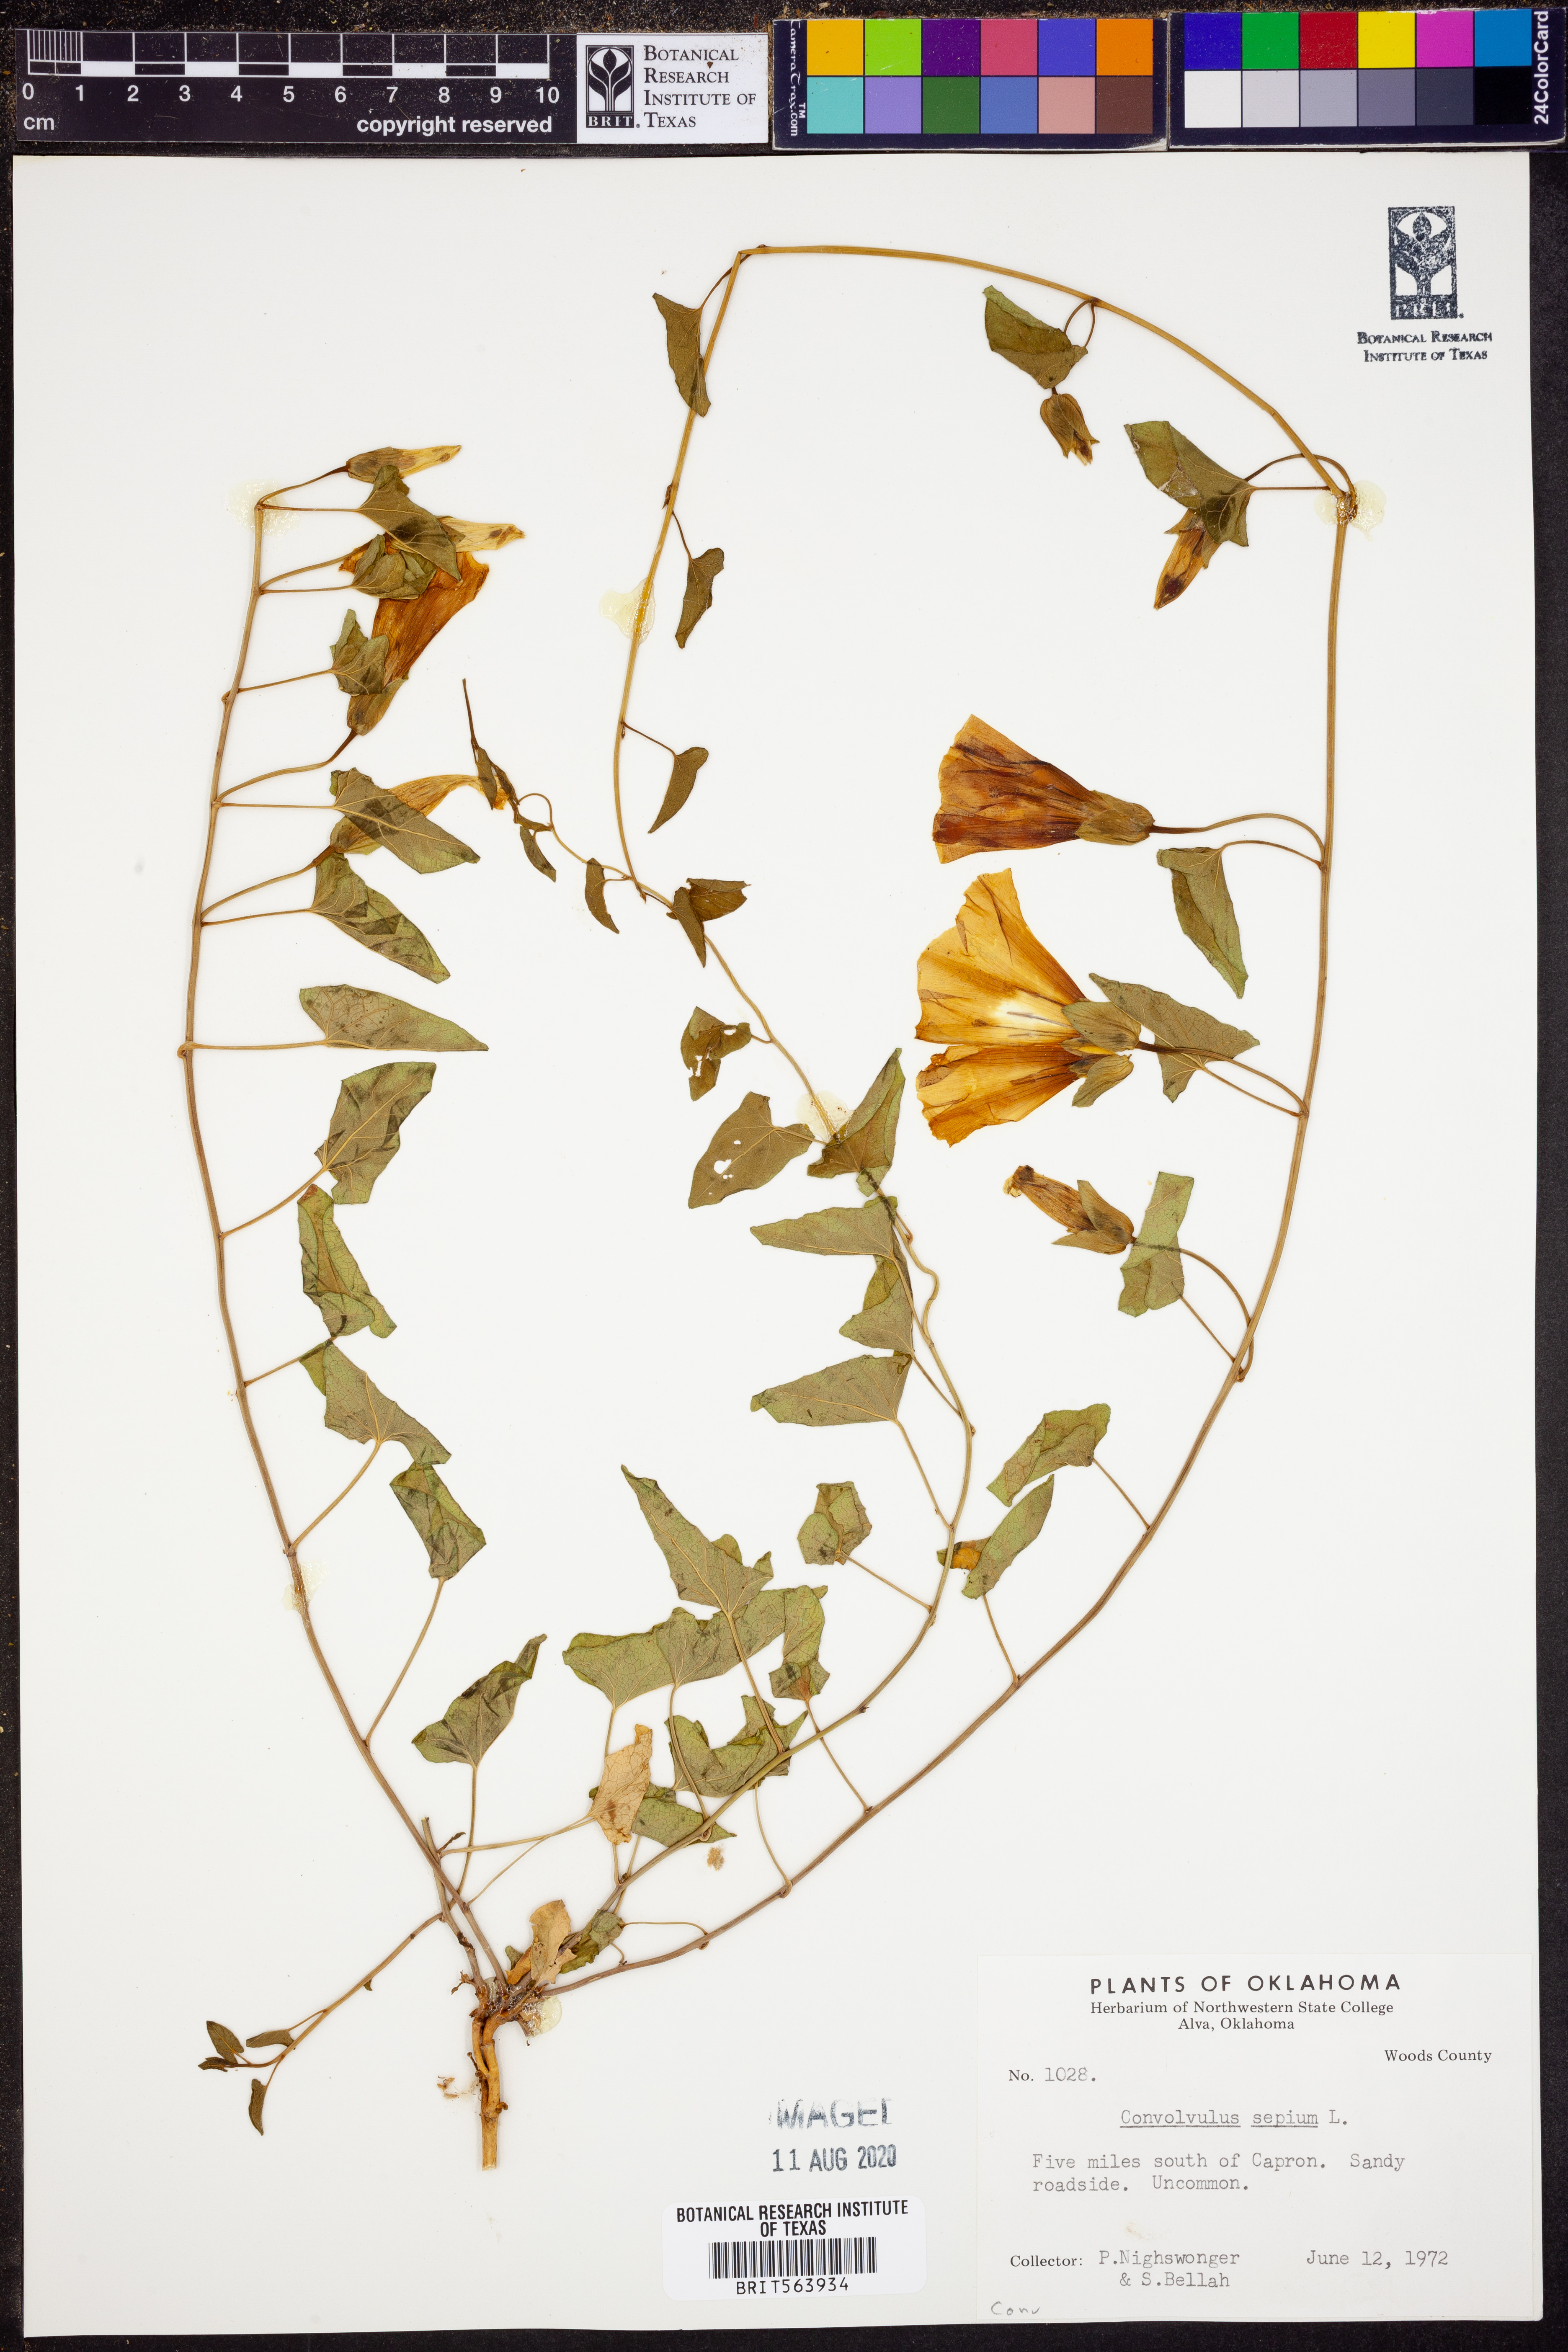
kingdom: Plantae
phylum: Tracheophyta
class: Magnoliopsida
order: Solanales
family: Convolvulaceae
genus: Convolvulus
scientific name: Convolvulus sepium
